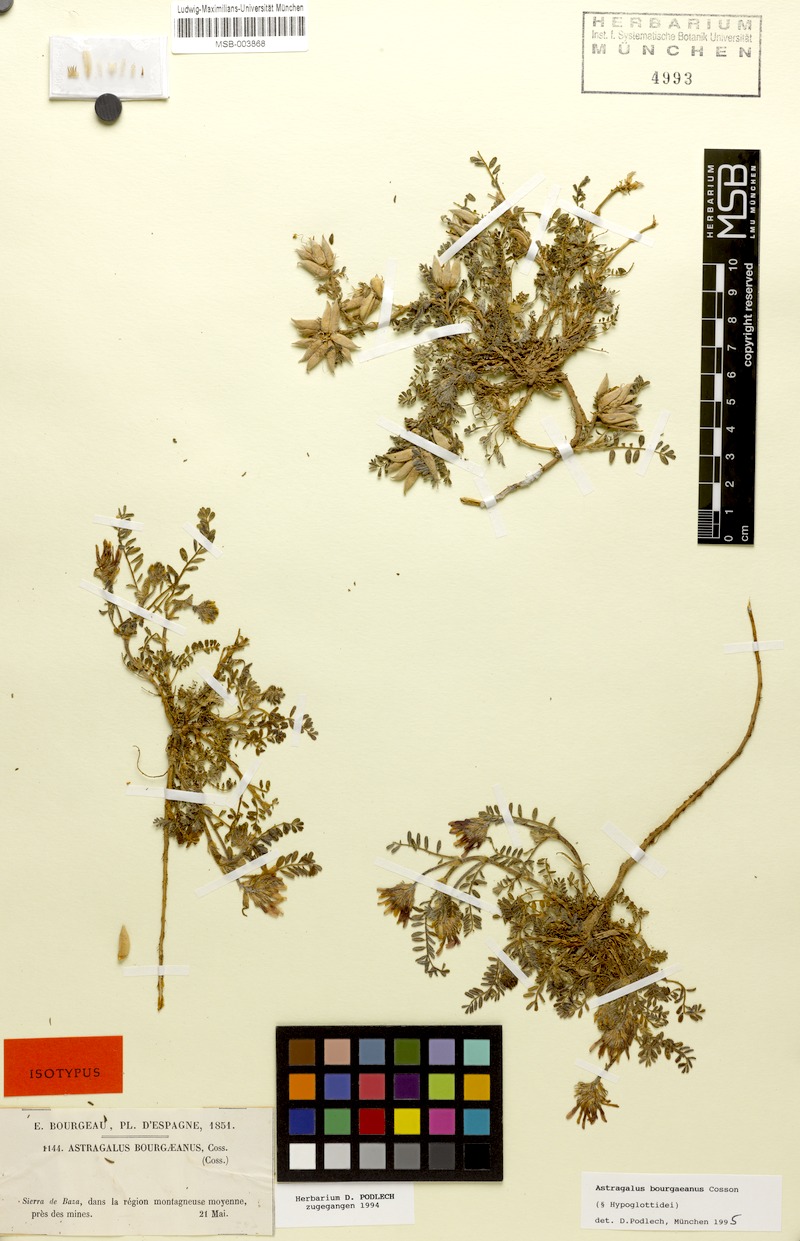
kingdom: Plantae
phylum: Tracheophyta
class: Magnoliopsida
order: Fabales
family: Fabaceae
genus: Astragalus
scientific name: Astragalus bourgaeanus
